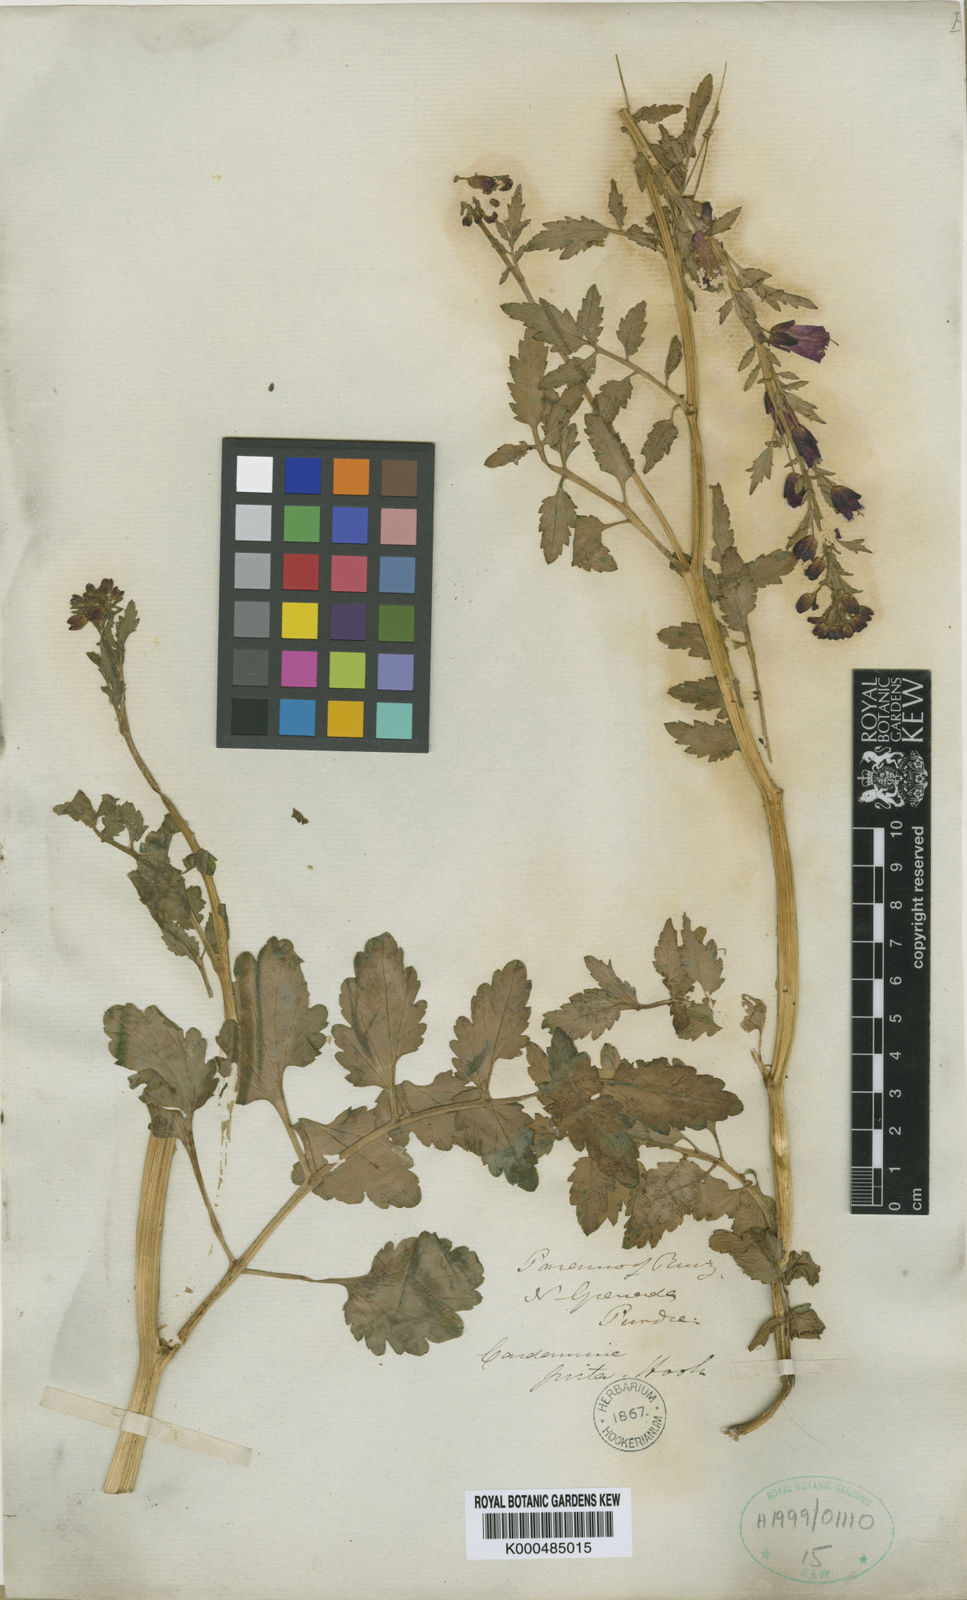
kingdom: Plantae
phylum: Tracheophyta
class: Magnoliopsida
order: Brassicales
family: Brassicaceae
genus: Cardamine
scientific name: Cardamine picta
